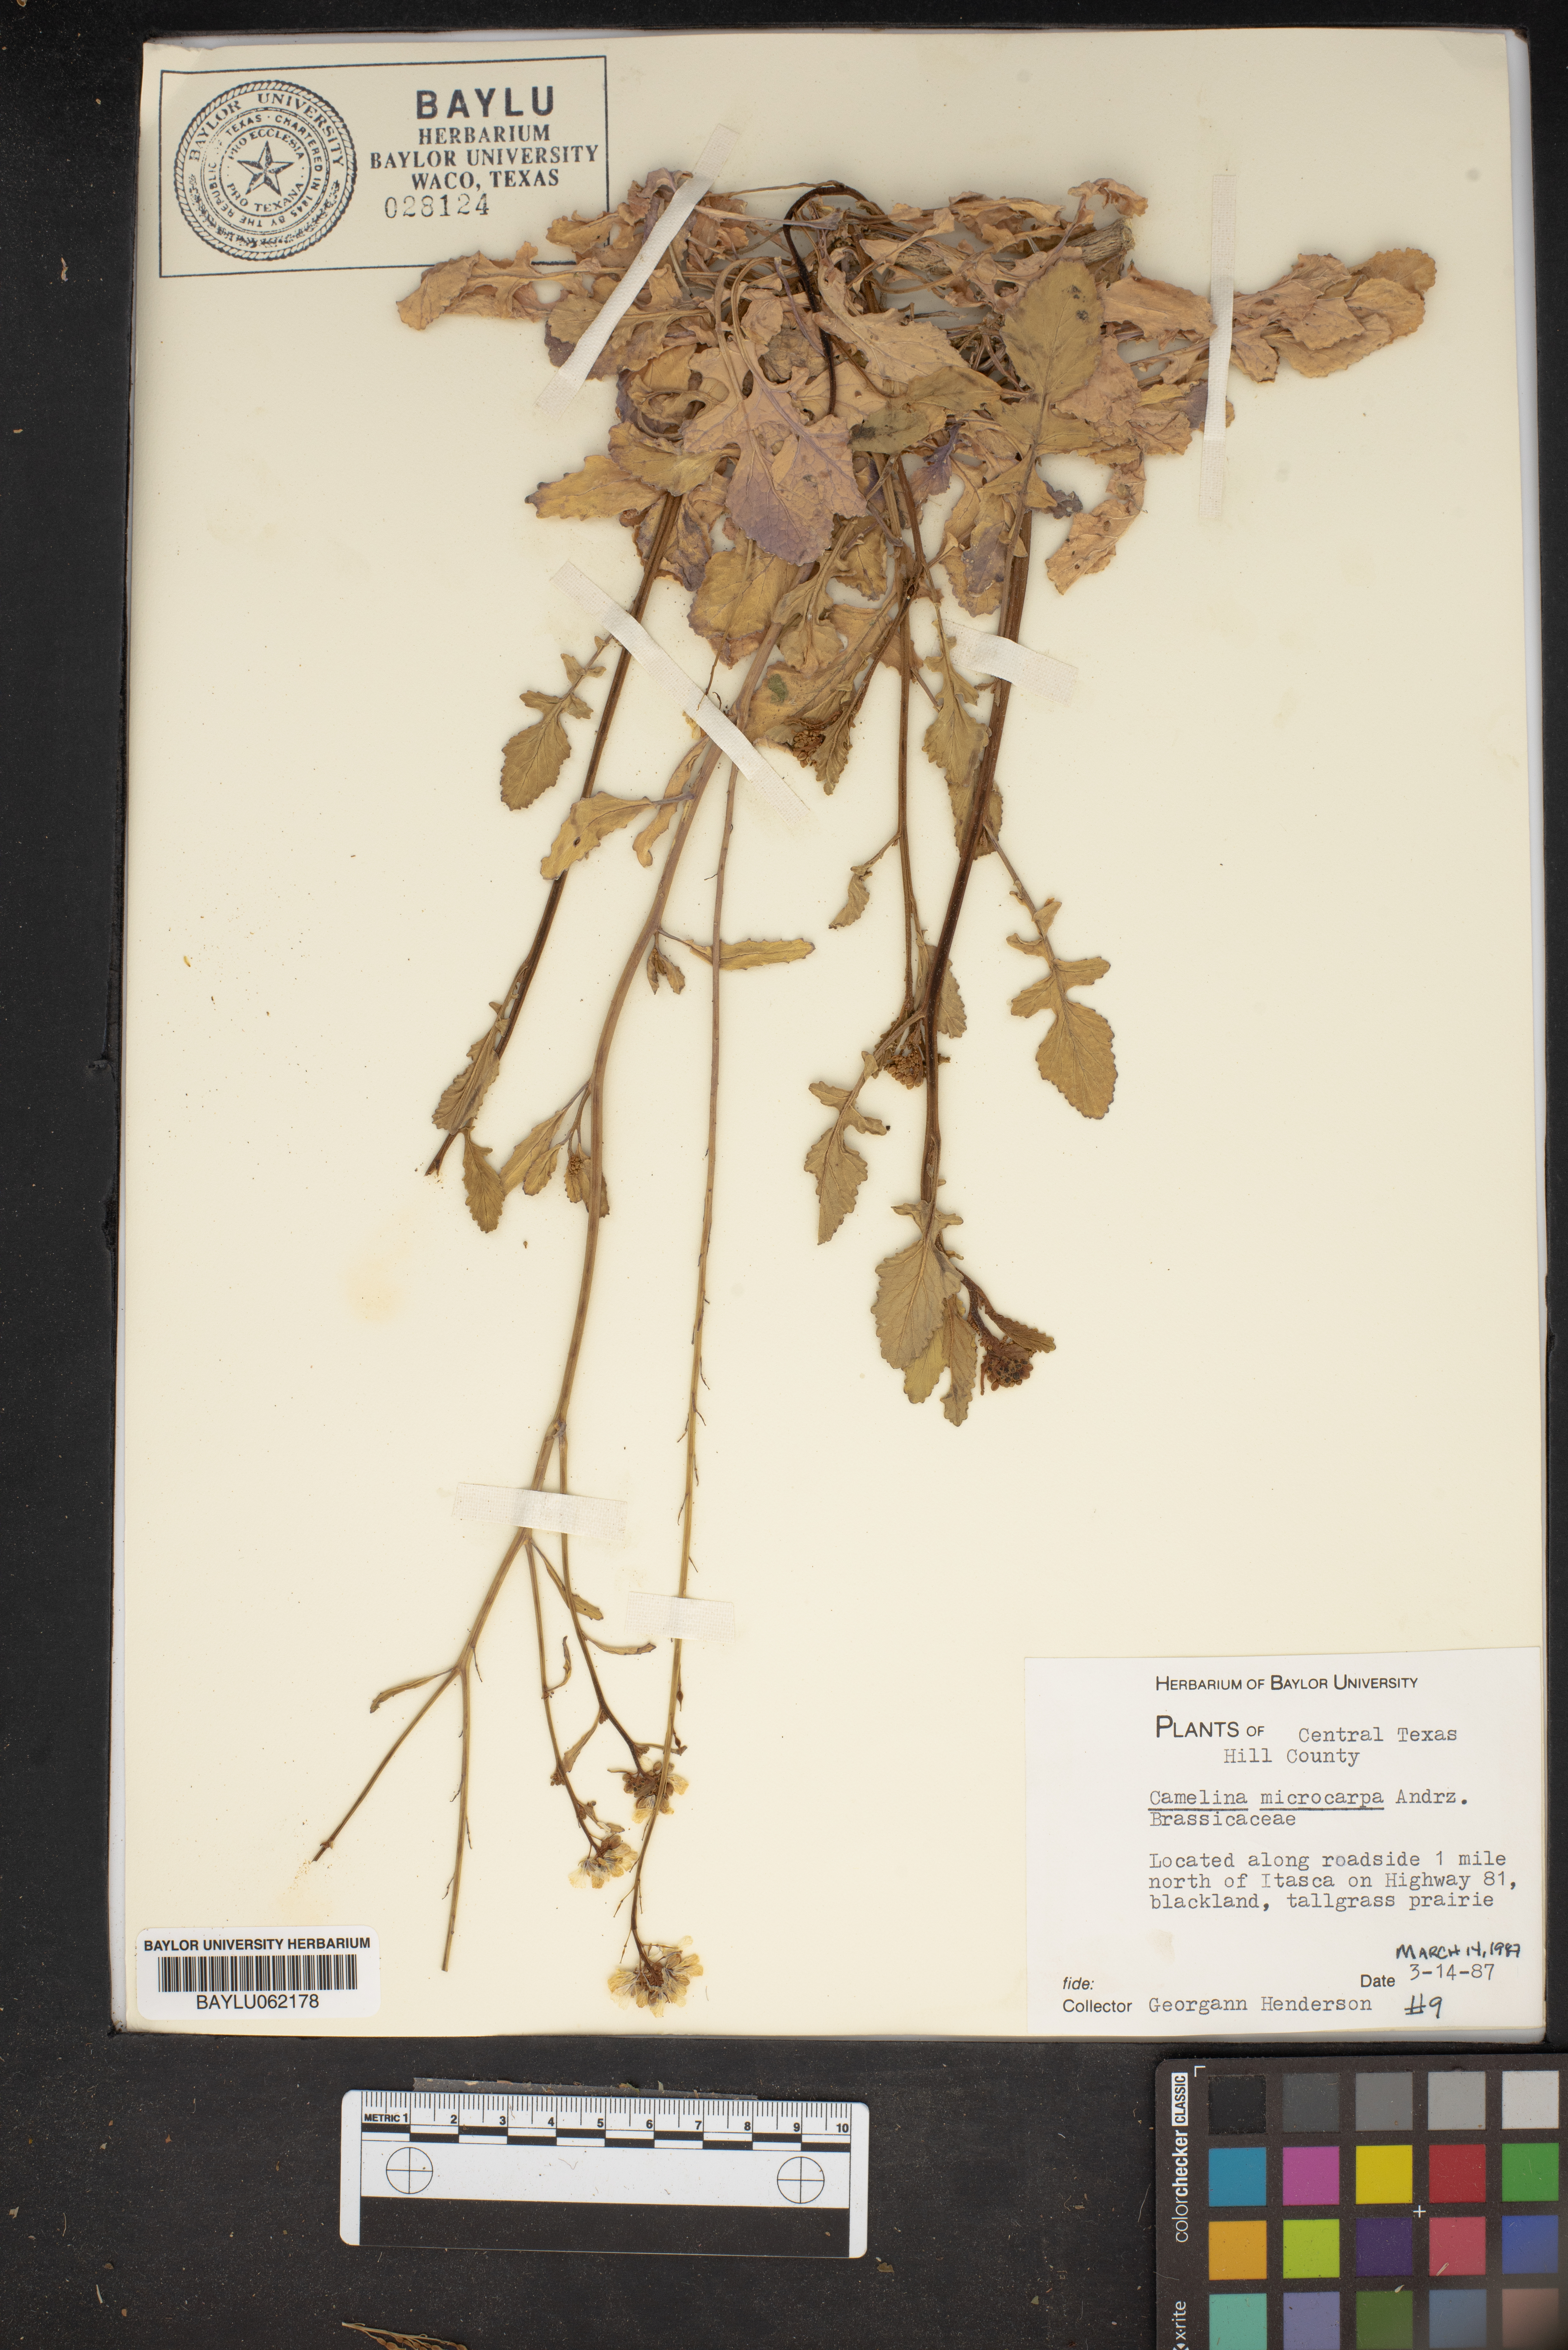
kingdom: Plantae
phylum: Tracheophyta
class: Magnoliopsida
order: Brassicales
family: Brassicaceae
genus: Camelina
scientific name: Camelina microcarpa
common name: Lesser gold-of-pleasure
